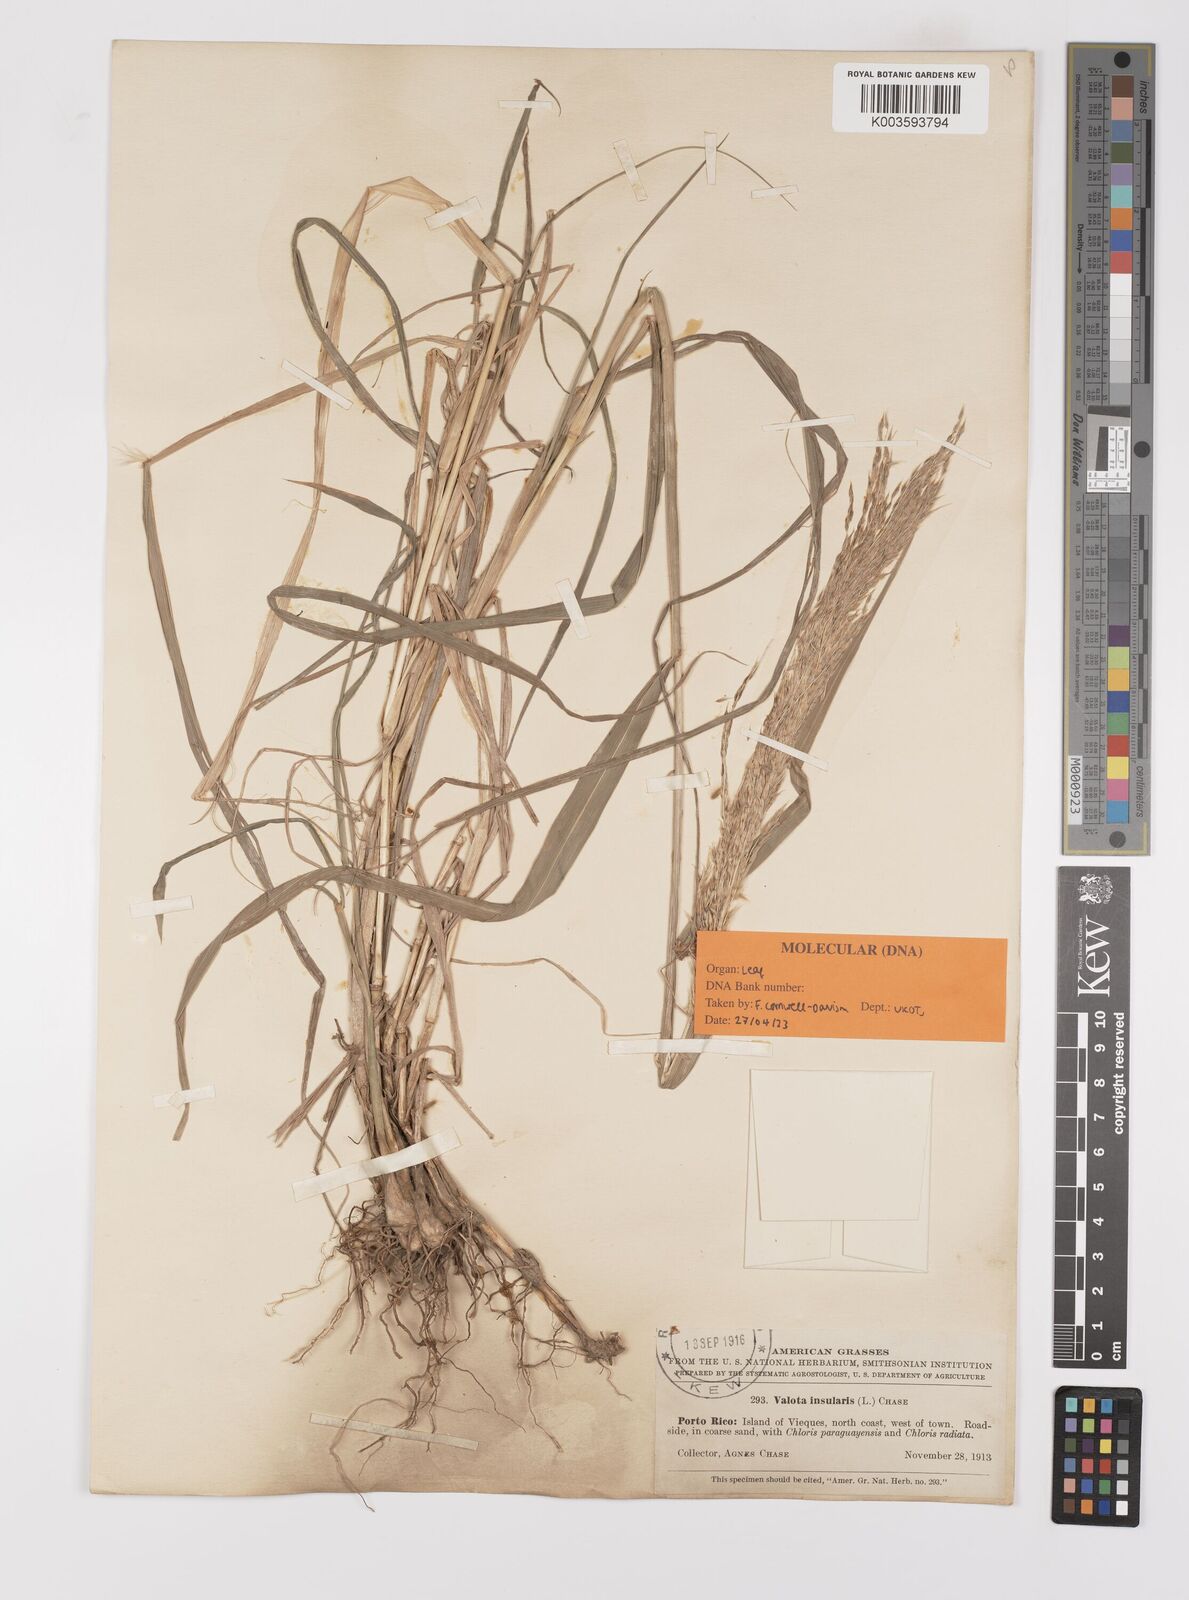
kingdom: Plantae
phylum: Tracheophyta
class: Liliopsida
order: Poales
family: Poaceae
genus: Digitaria
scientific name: Digitaria insularis
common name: Sourgrass
